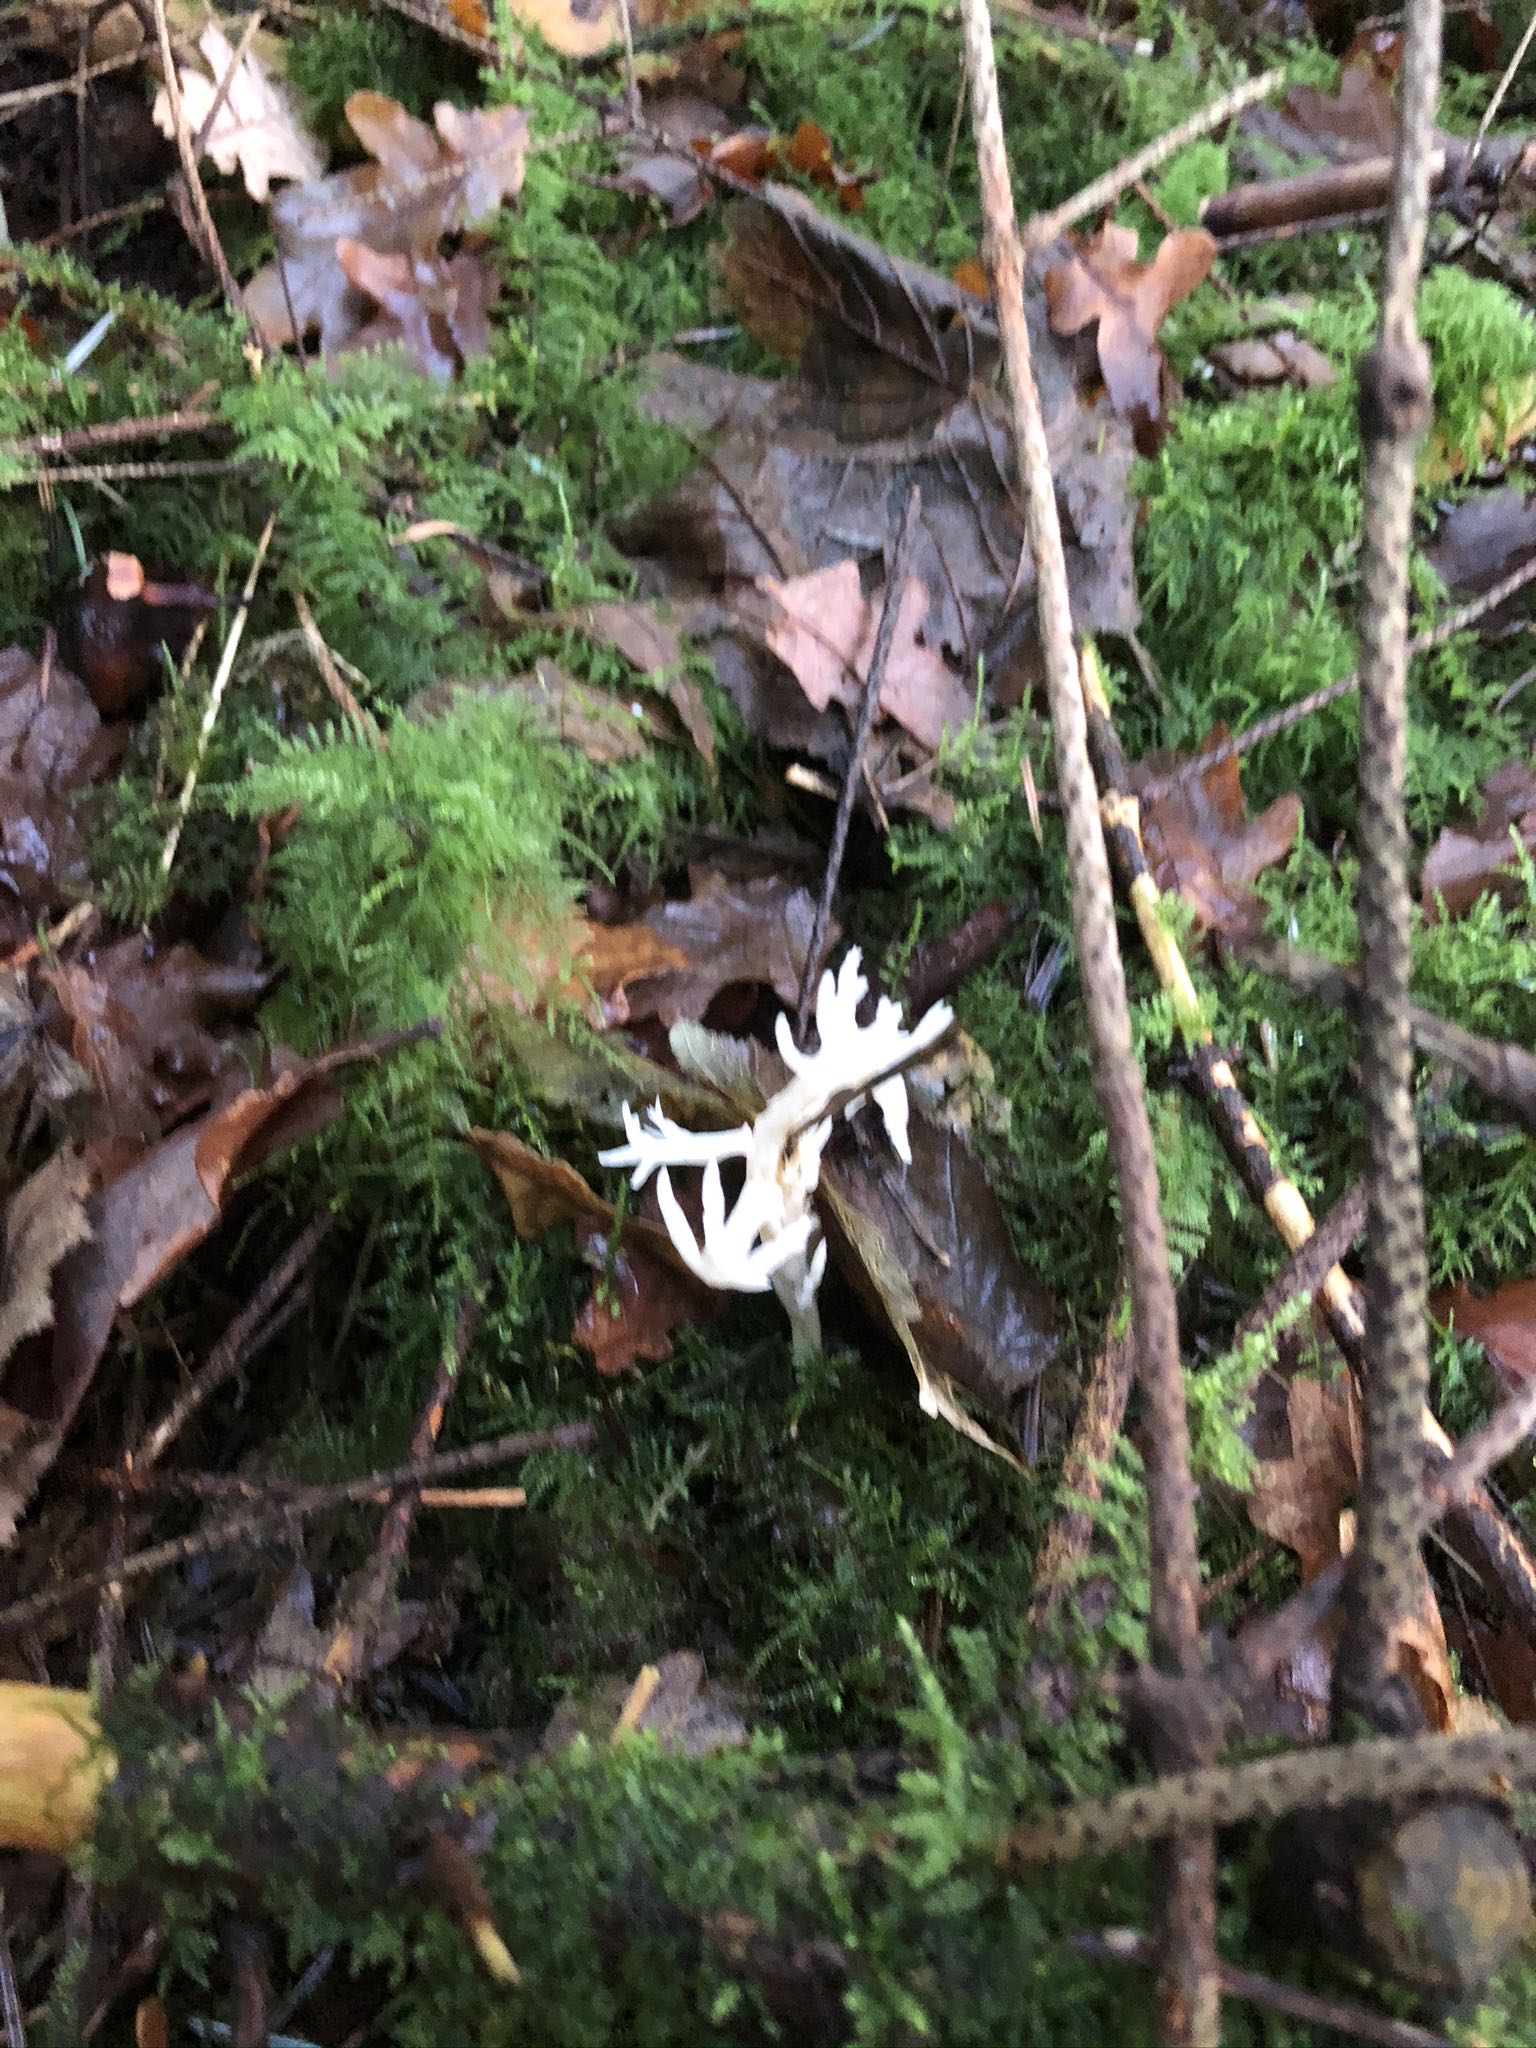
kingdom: Fungi
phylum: Basidiomycota
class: Agaricomycetes
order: Cantharellales
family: Hydnaceae
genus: Clavulina
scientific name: Clavulina
